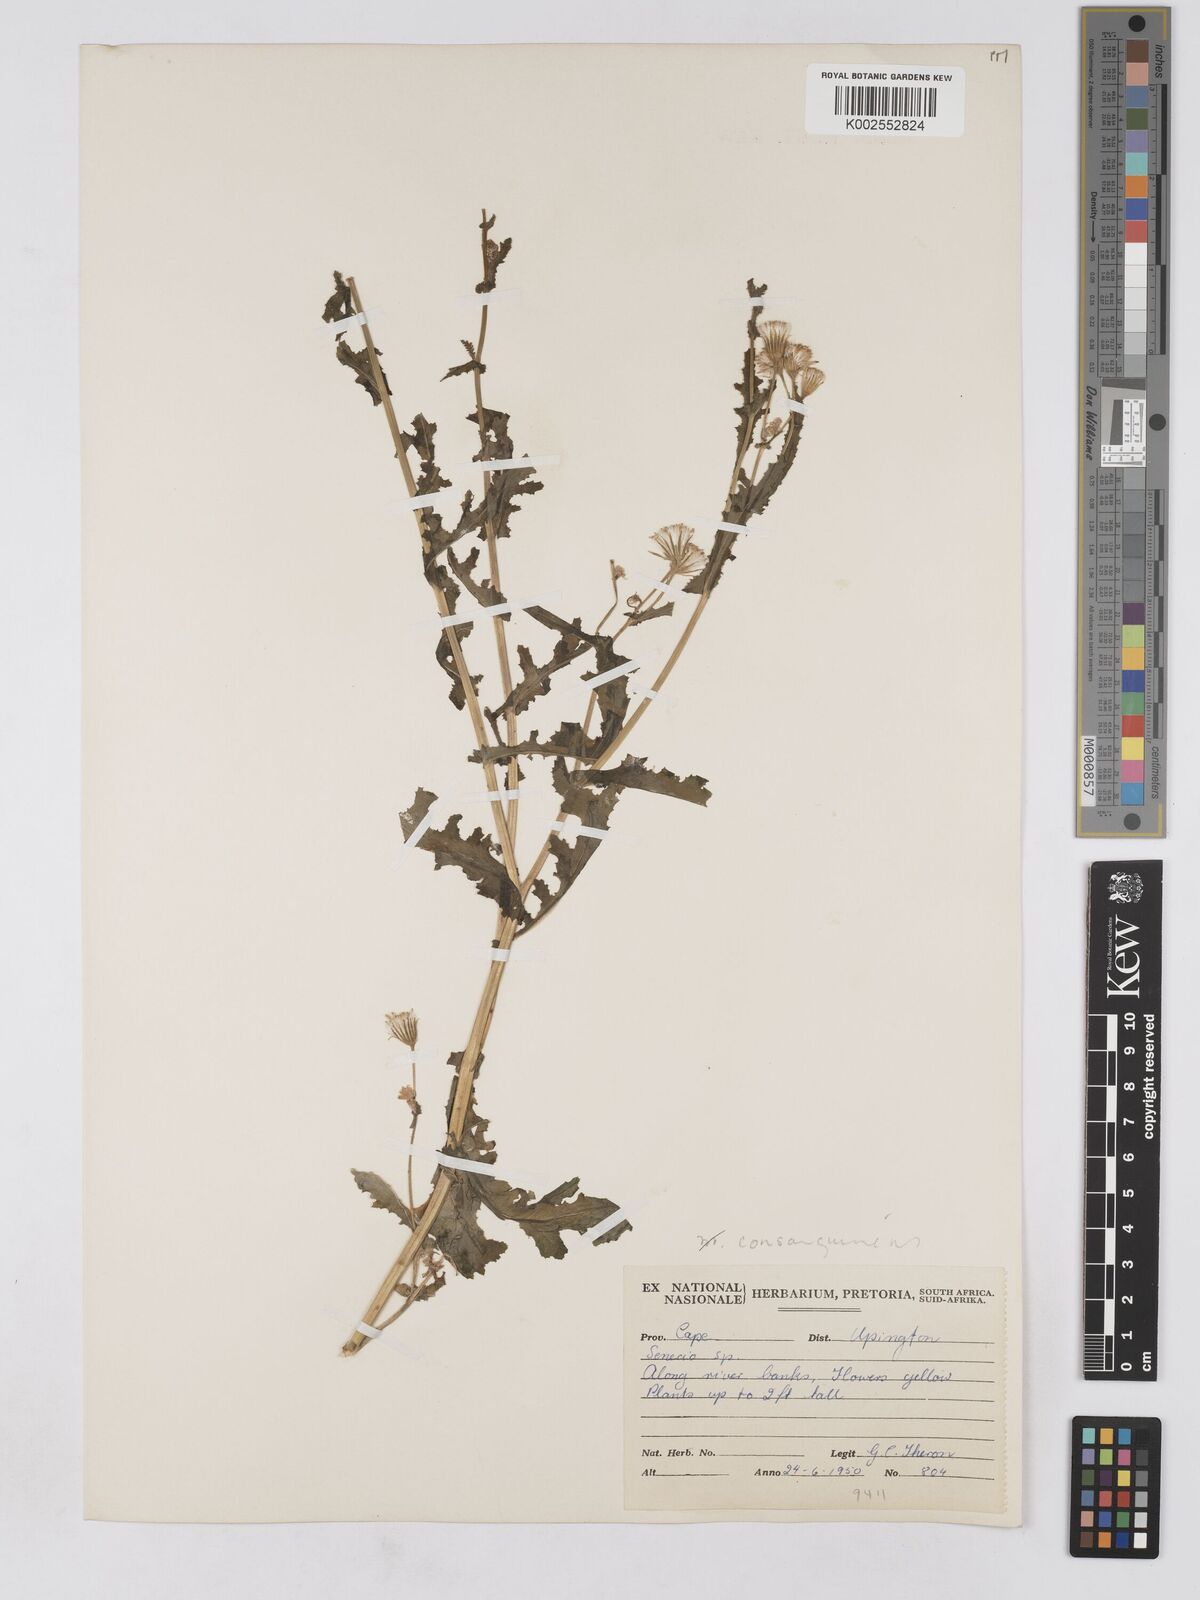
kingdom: Plantae
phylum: Tracheophyta
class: Magnoliopsida
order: Asterales
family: Asteraceae
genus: Senecio
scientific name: Senecio consanguineus
